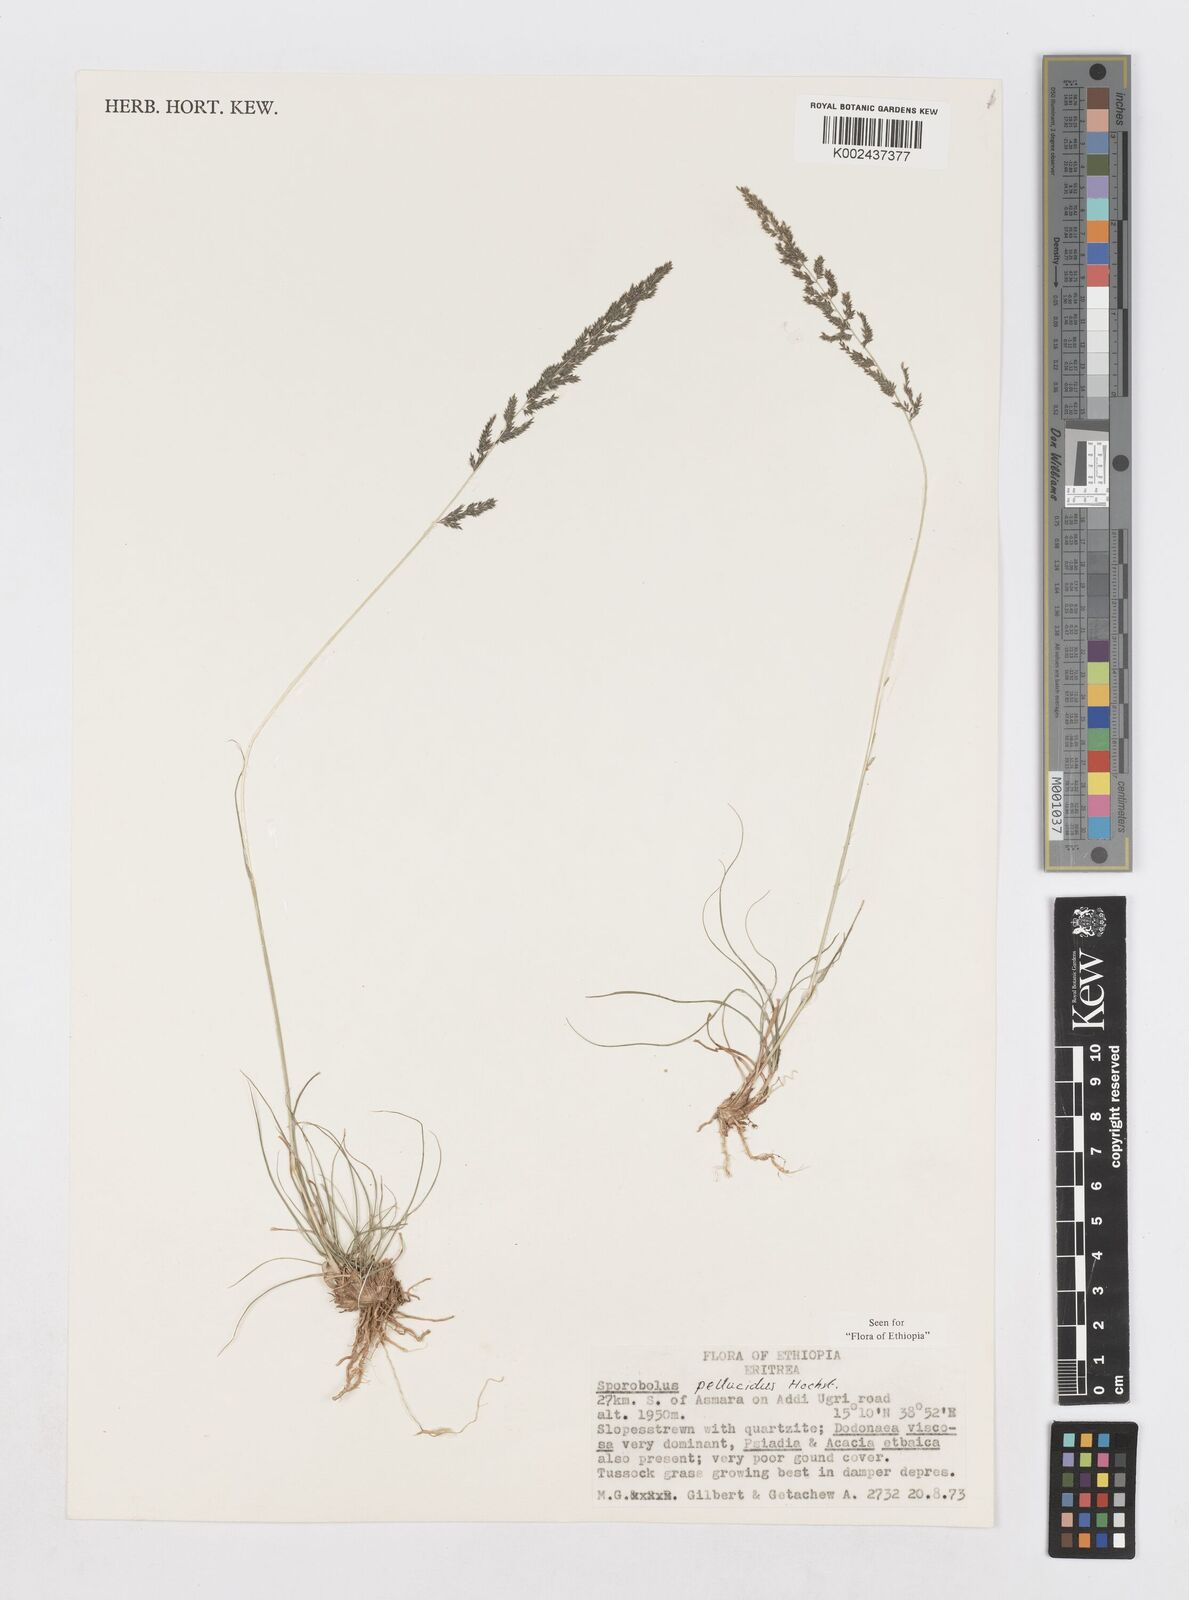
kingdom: Plantae
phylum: Tracheophyta
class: Liliopsida
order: Poales
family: Poaceae
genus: Sporobolus
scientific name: Sporobolus pellucidus
